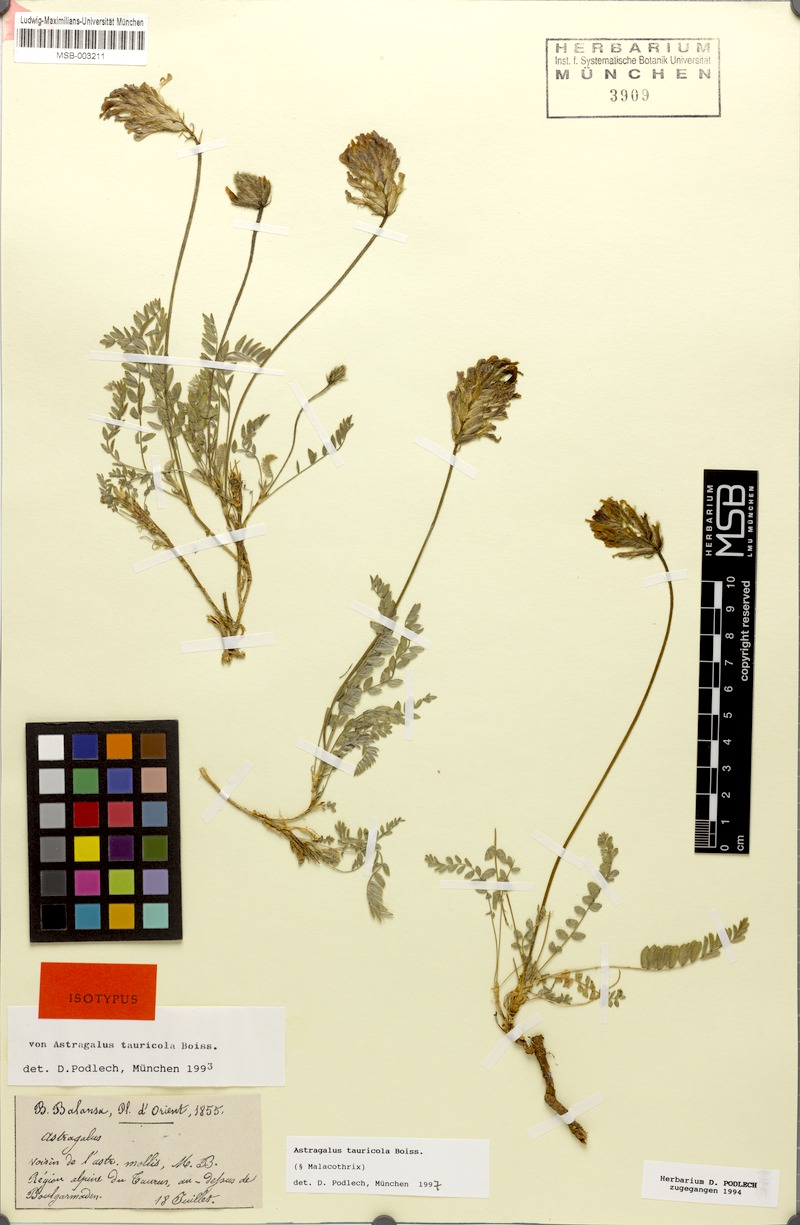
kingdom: Plantae
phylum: Tracheophyta
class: Magnoliopsida
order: Fabales
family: Fabaceae
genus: Astragalus
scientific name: Astragalus tauricola
